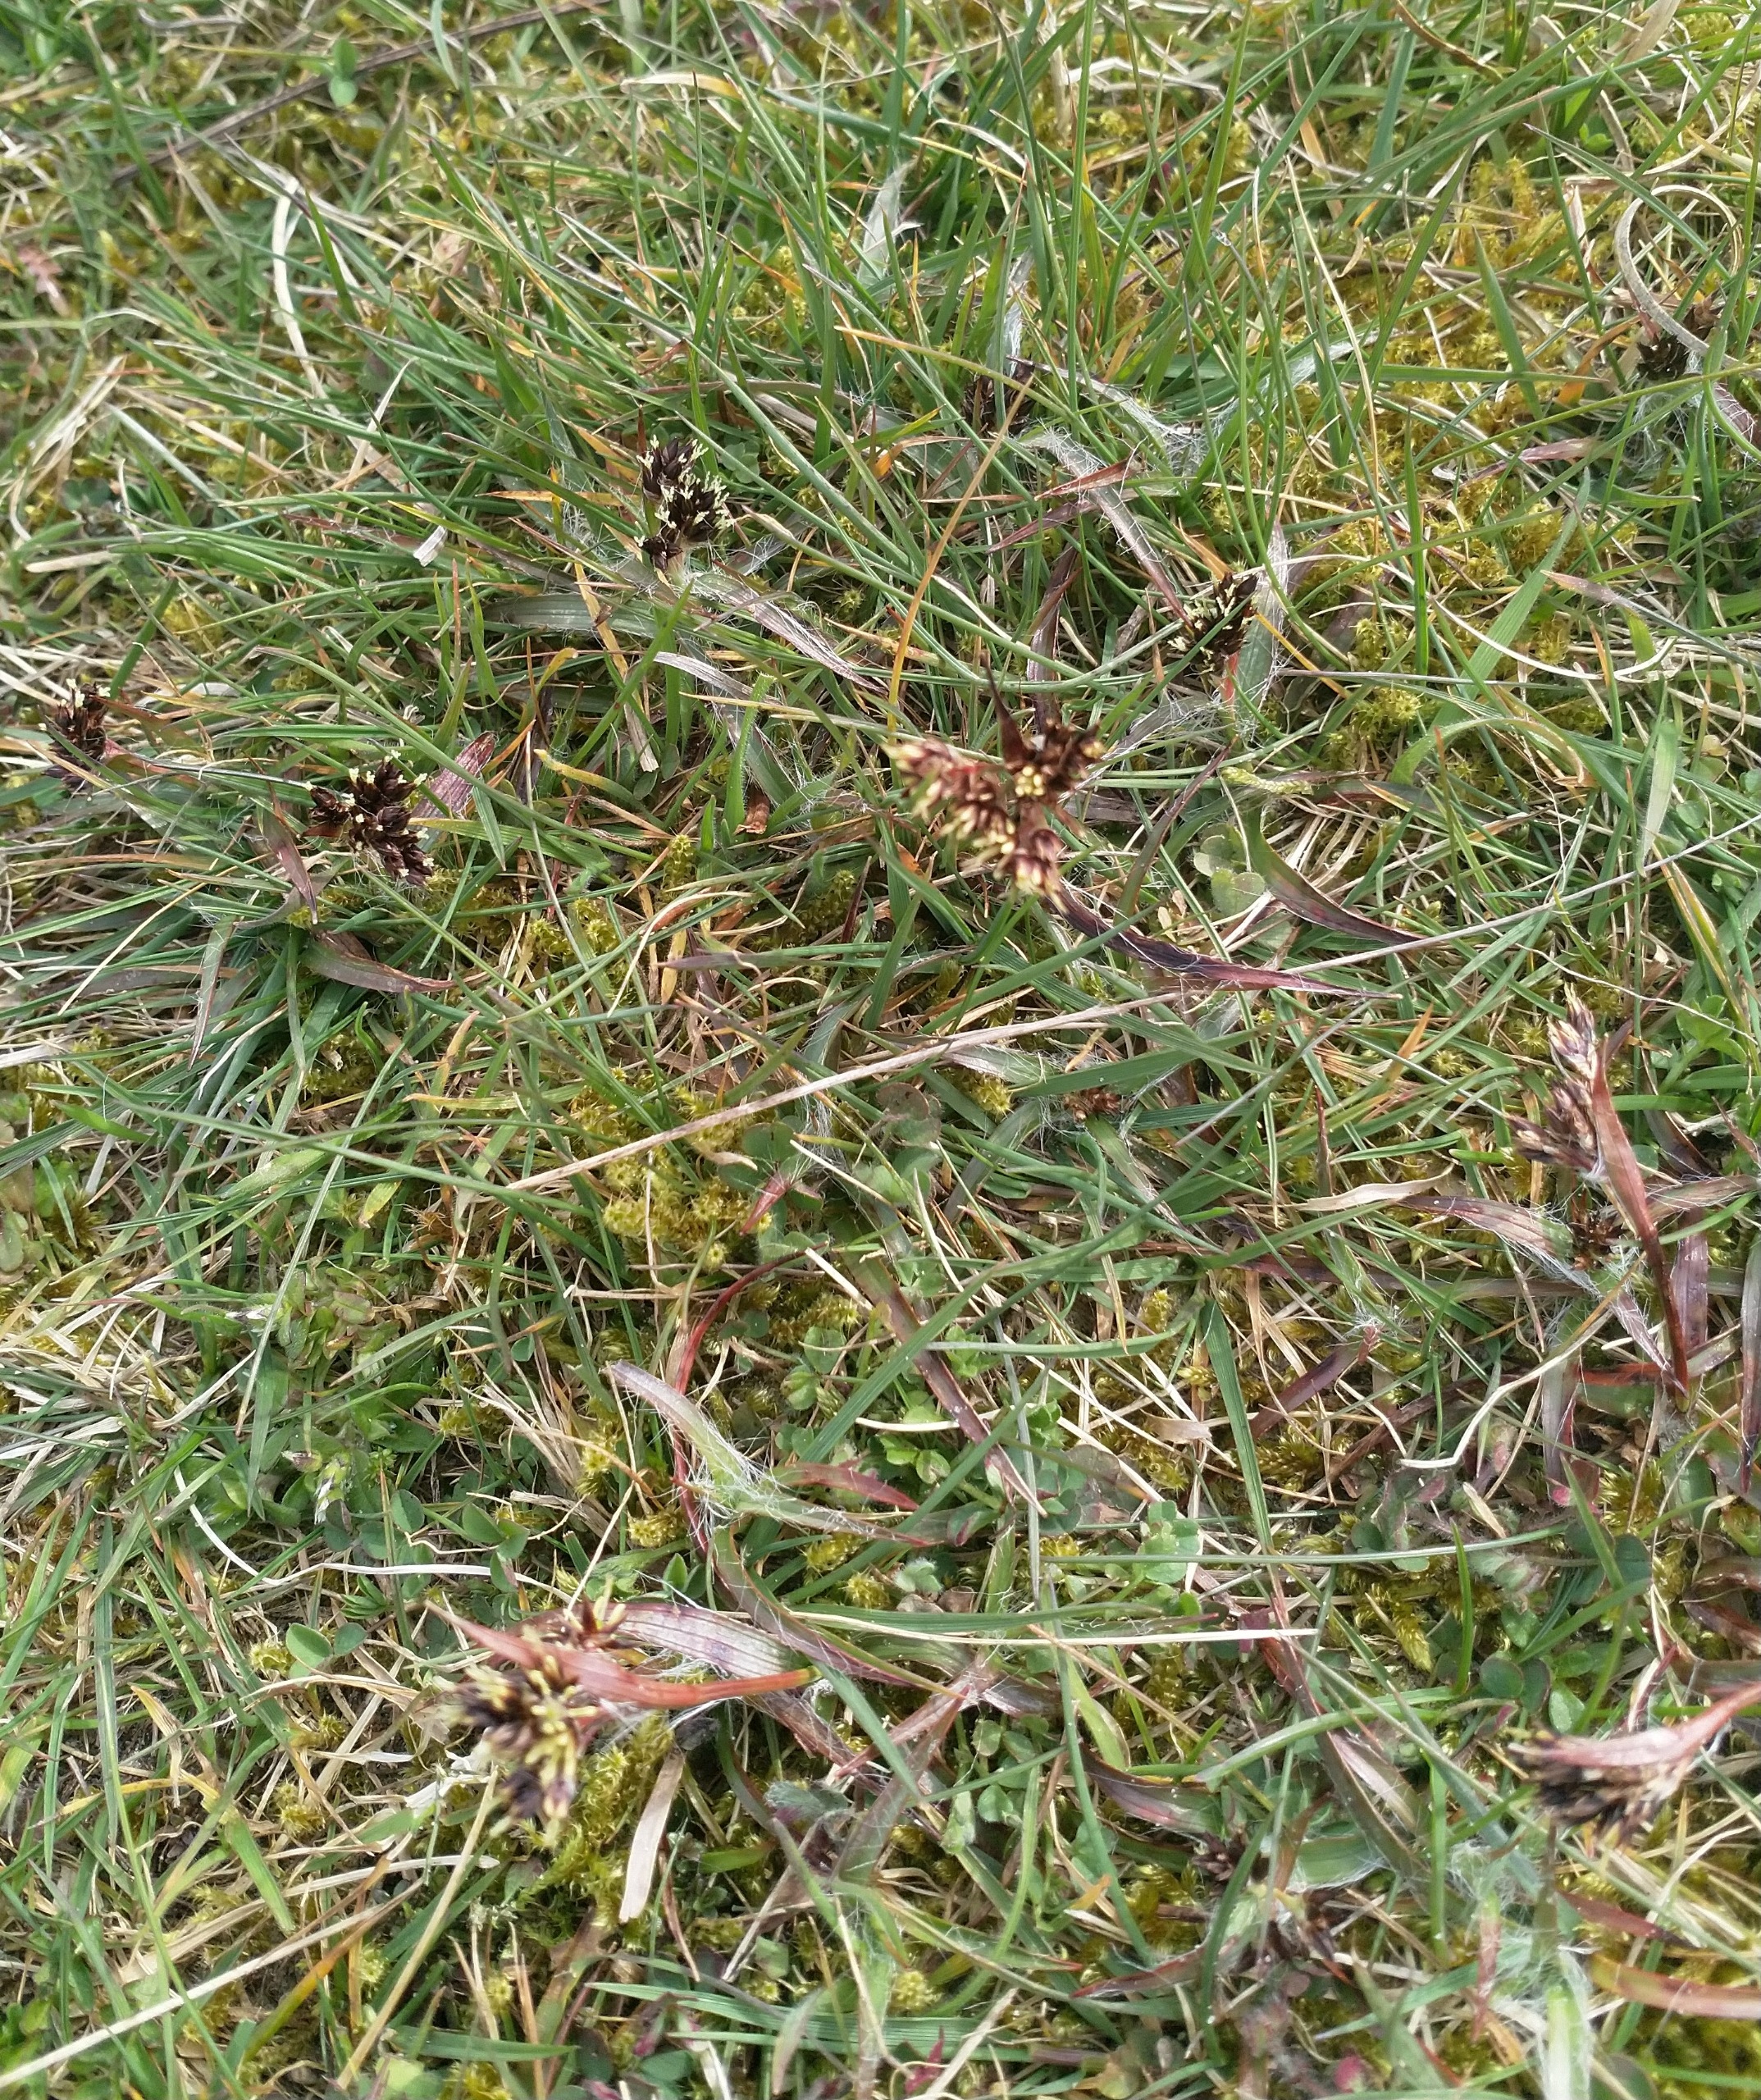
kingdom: Plantae
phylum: Tracheophyta
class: Liliopsida
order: Poales
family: Juncaceae
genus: Luzula
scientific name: Luzula campestris
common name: Mark-frytle
